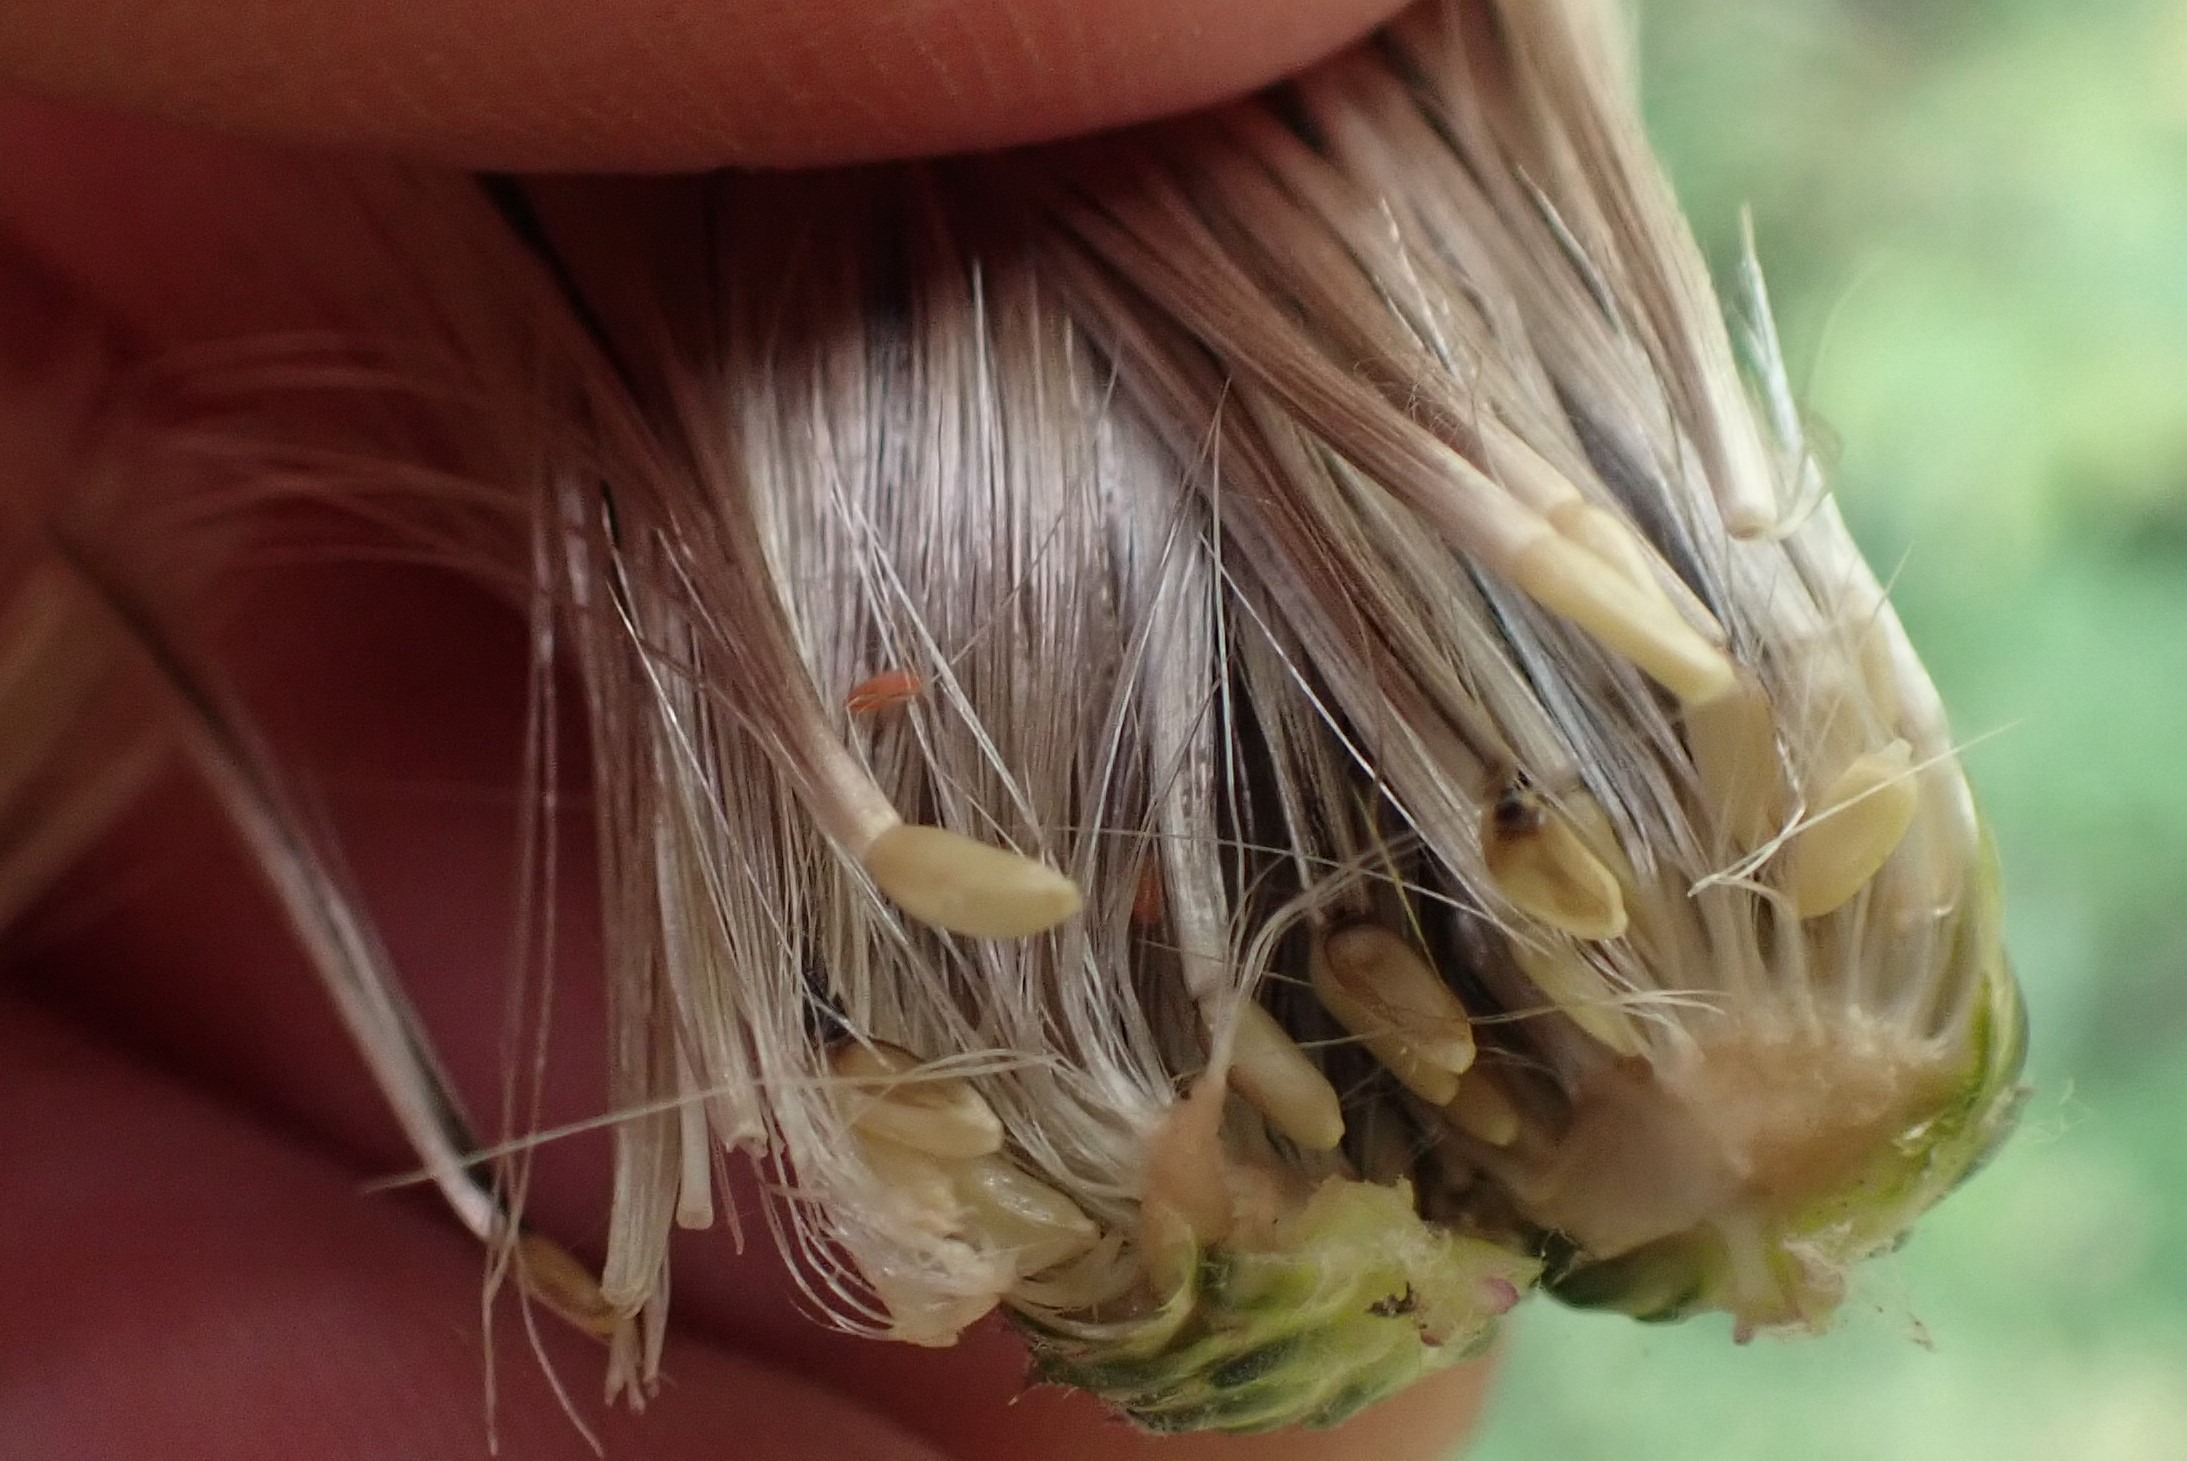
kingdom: Animalia
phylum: Arthropoda
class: Insecta
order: Diptera
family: Cecidomyiidae
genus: Jaapiella
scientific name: Jaapiella cirsiicola
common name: Tidselgalmyg
